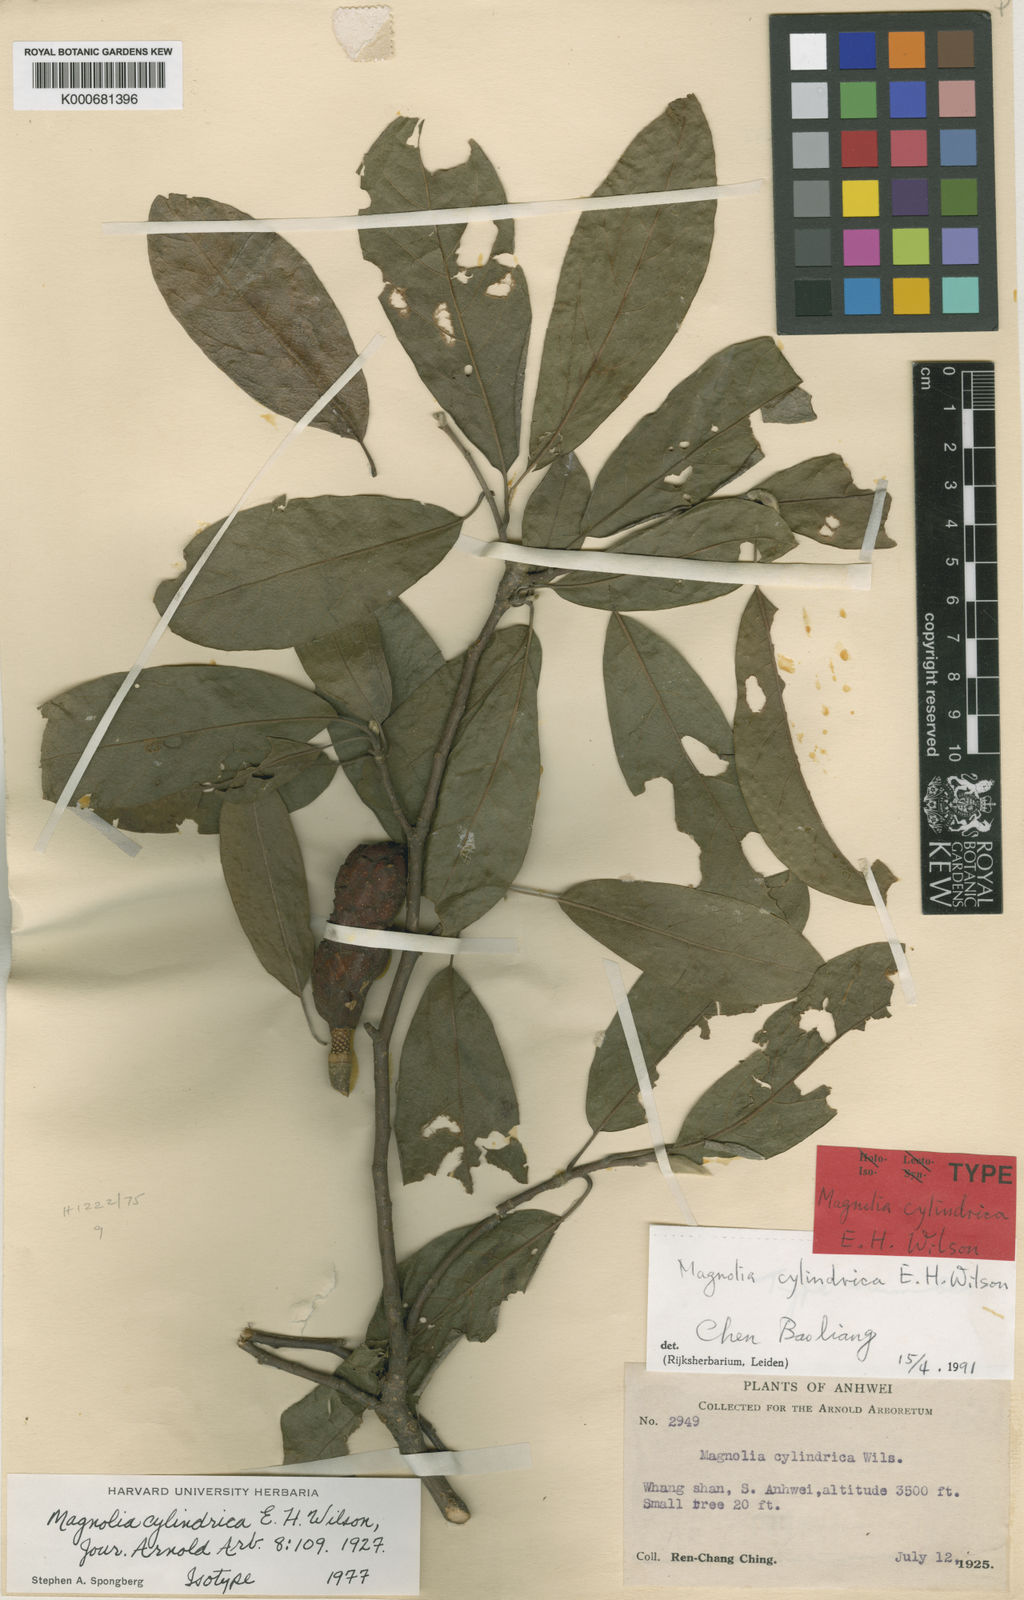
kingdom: Plantae
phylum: Tracheophyta
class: Magnoliopsida
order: Magnoliales
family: Magnoliaceae
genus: Magnolia
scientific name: Magnolia cylindrica
